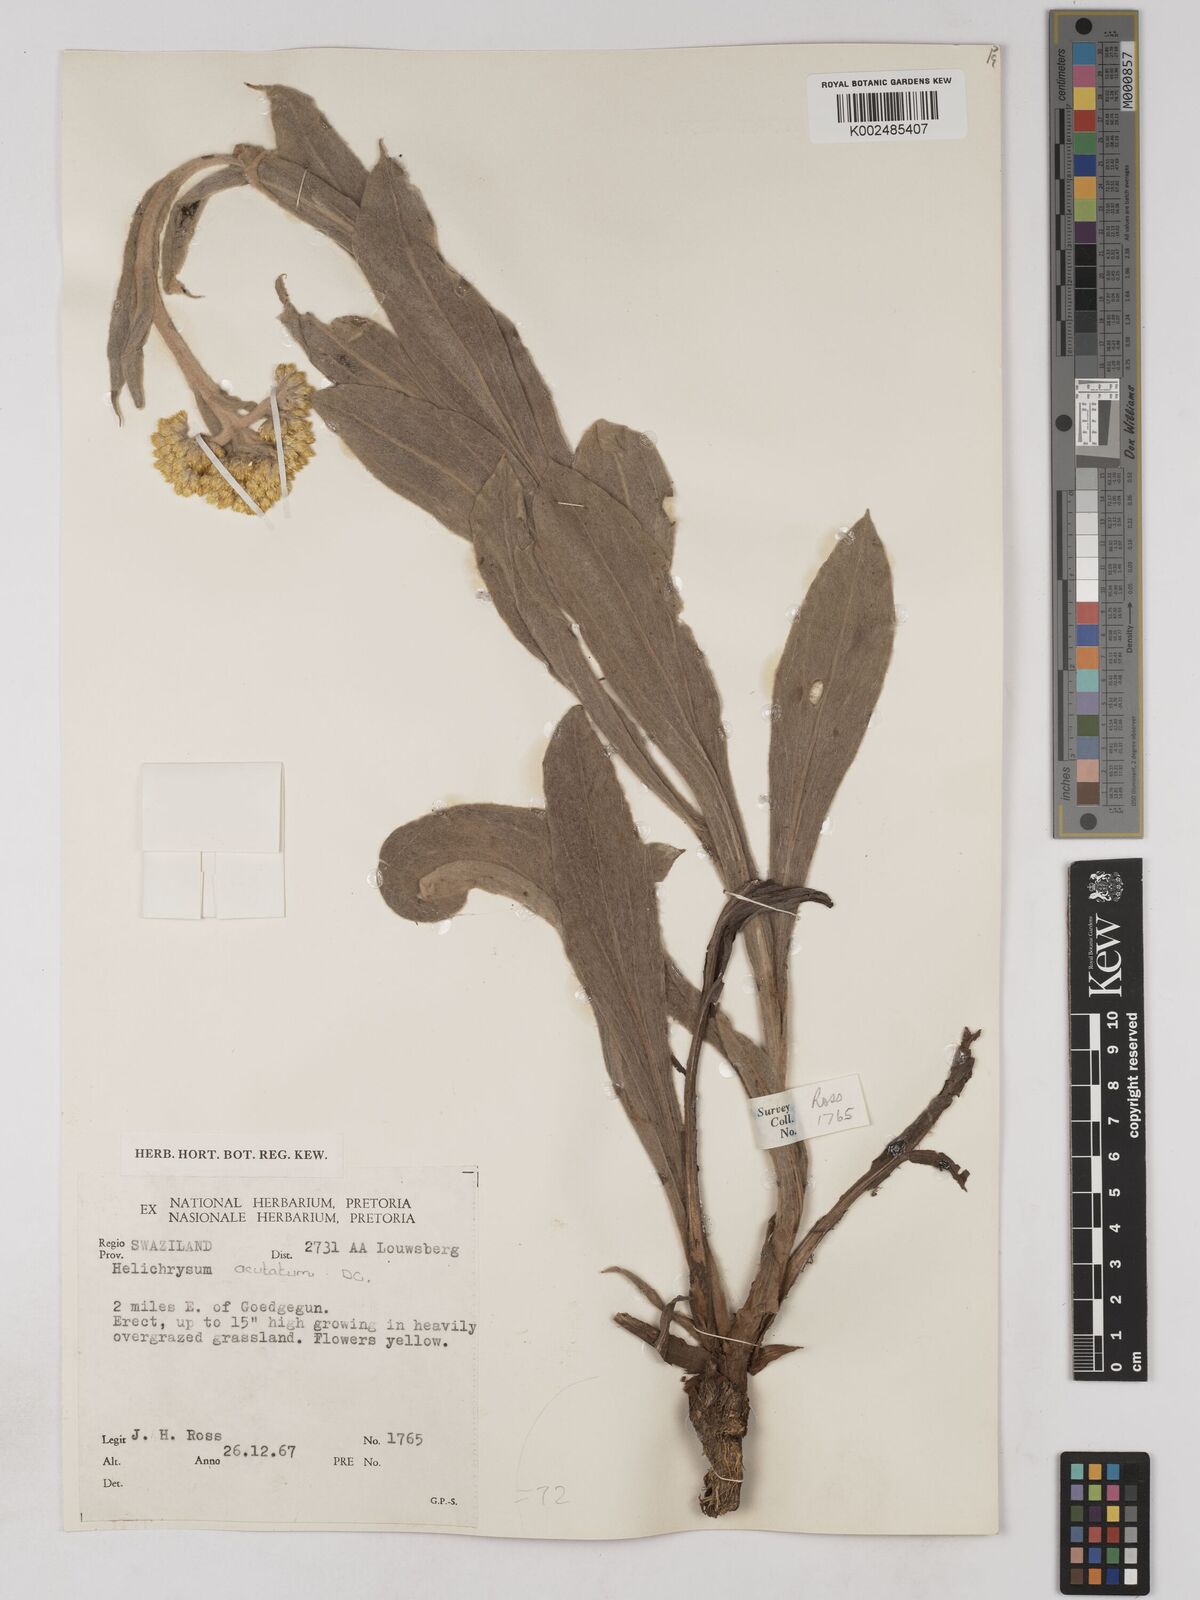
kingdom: Plantae
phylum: Tracheophyta
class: Magnoliopsida
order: Asterales
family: Asteraceae
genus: Helichrysum
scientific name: Helichrysum acutatum
